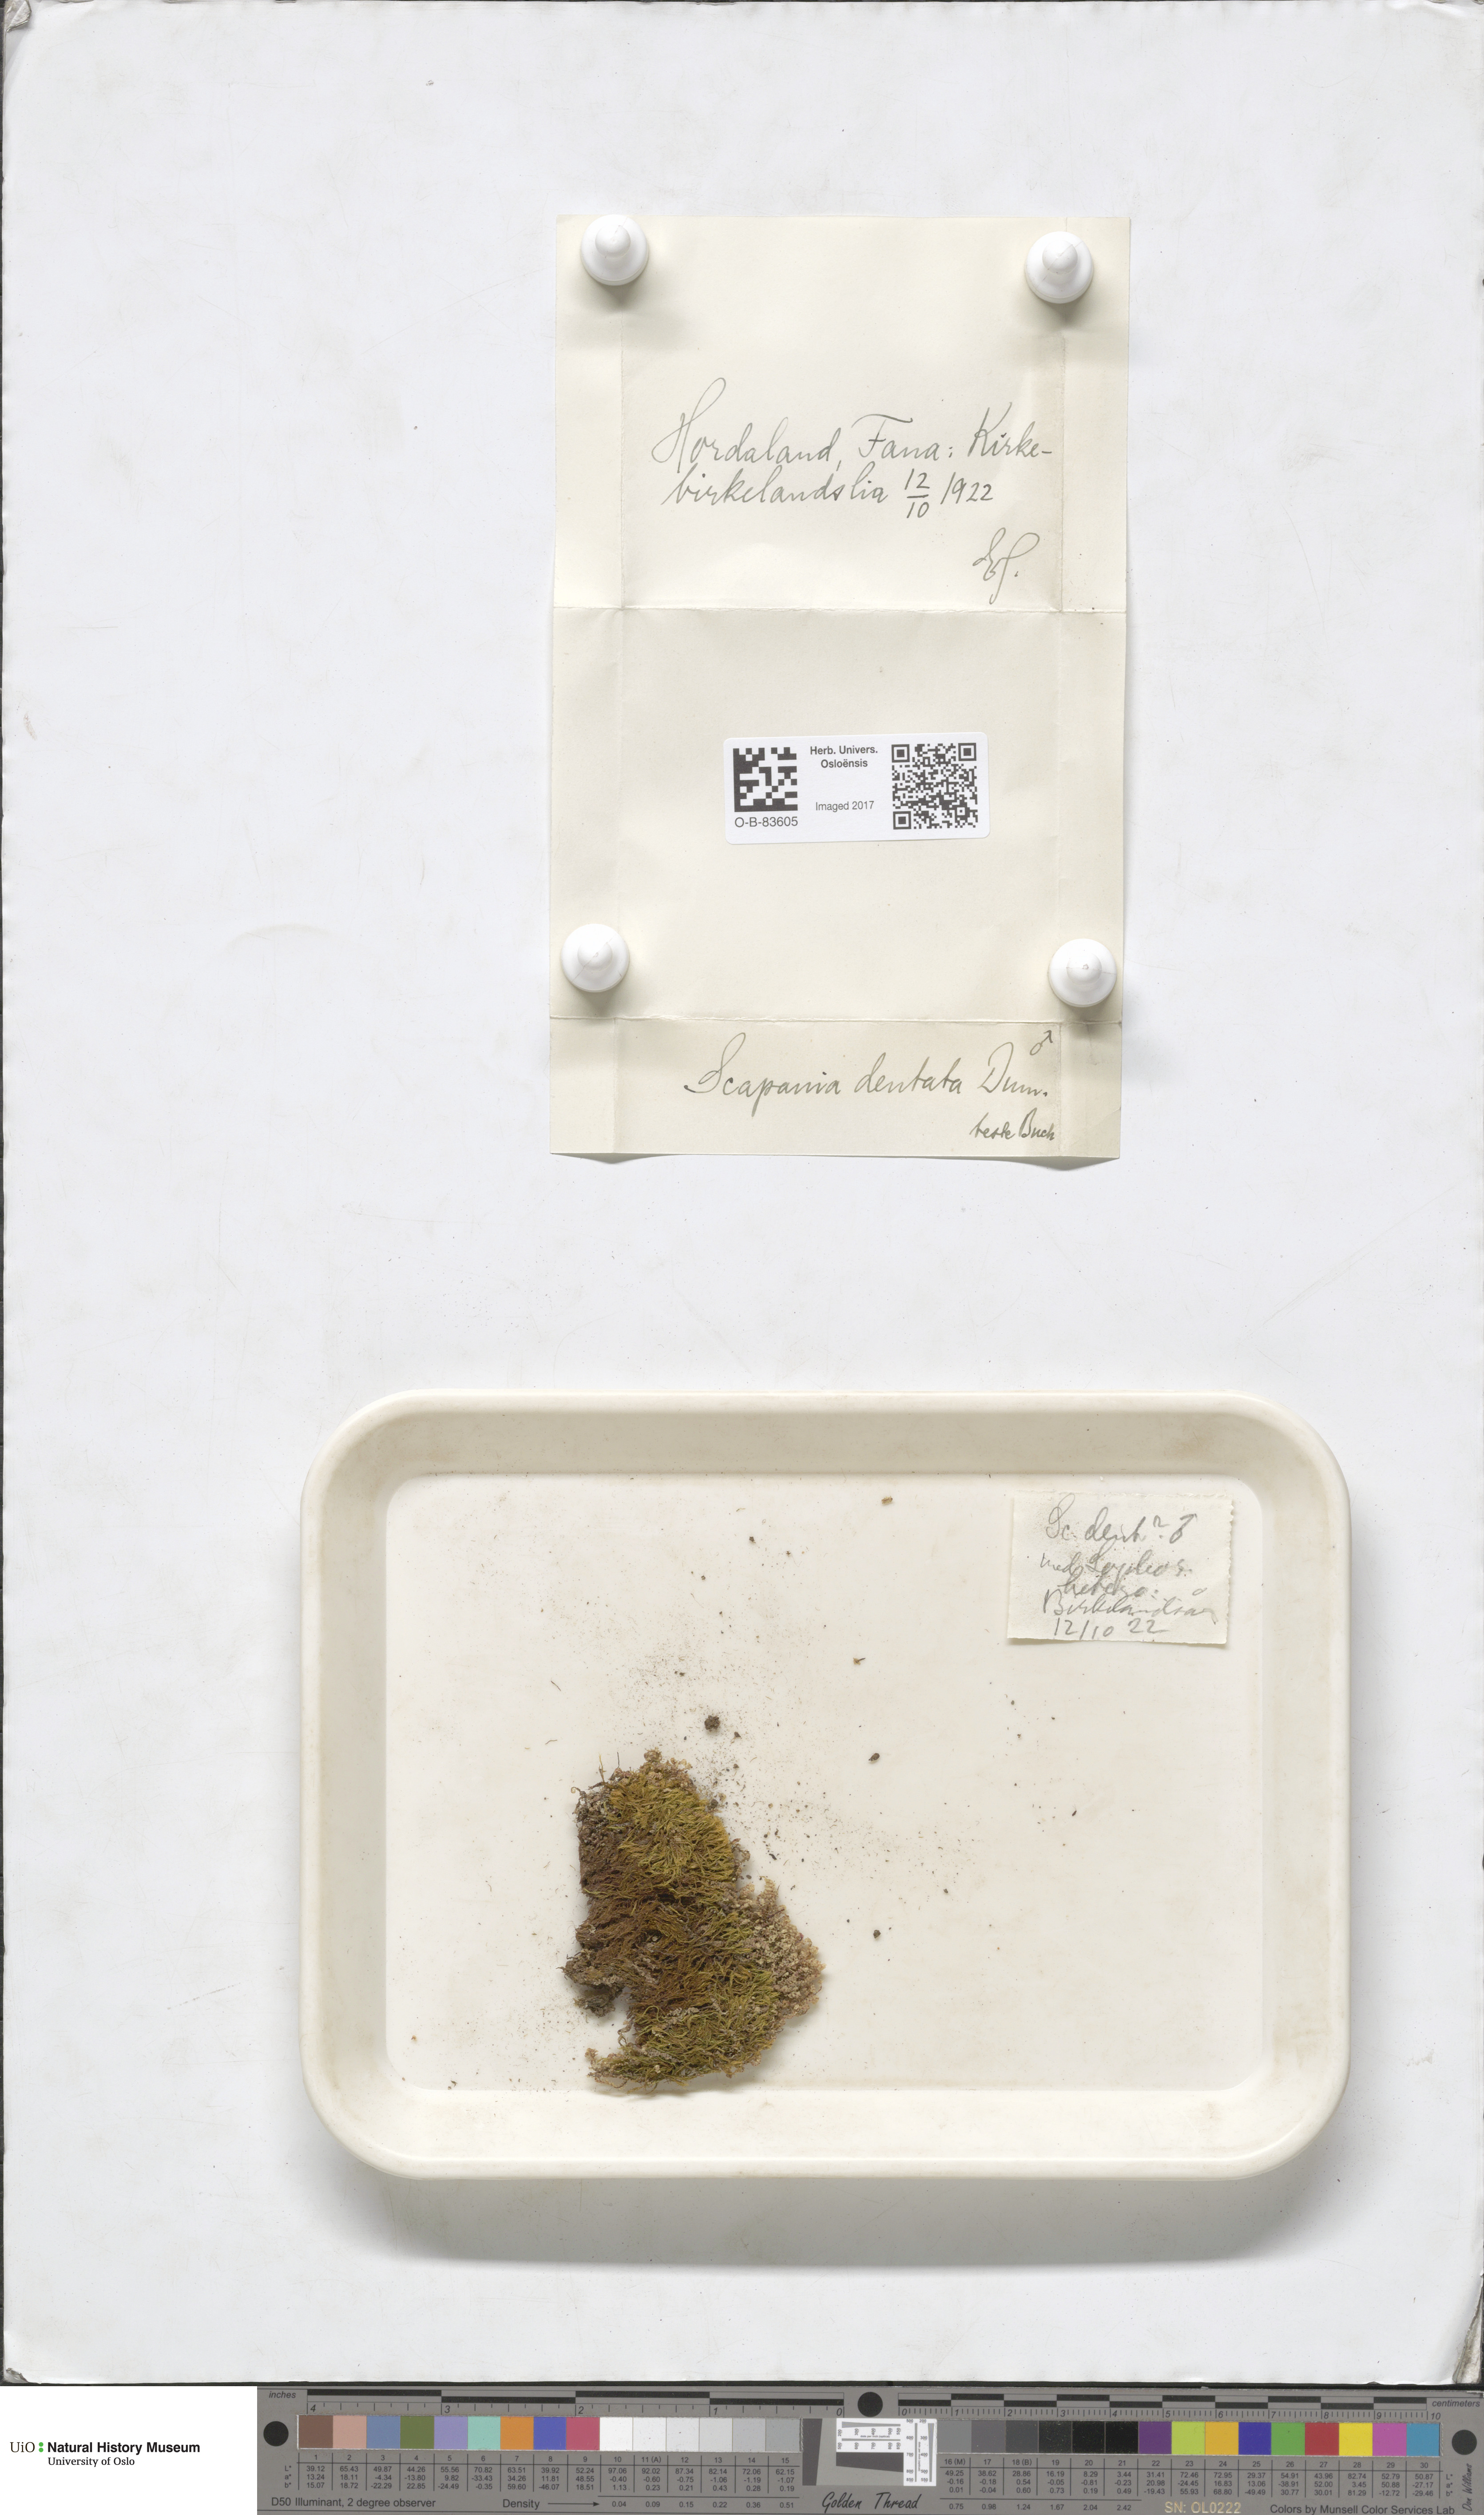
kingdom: Plantae
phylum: Marchantiophyta
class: Jungermanniopsida
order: Jungermanniales
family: Scapaniaceae
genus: Scapania
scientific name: Scapania undulata
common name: Water earwort
